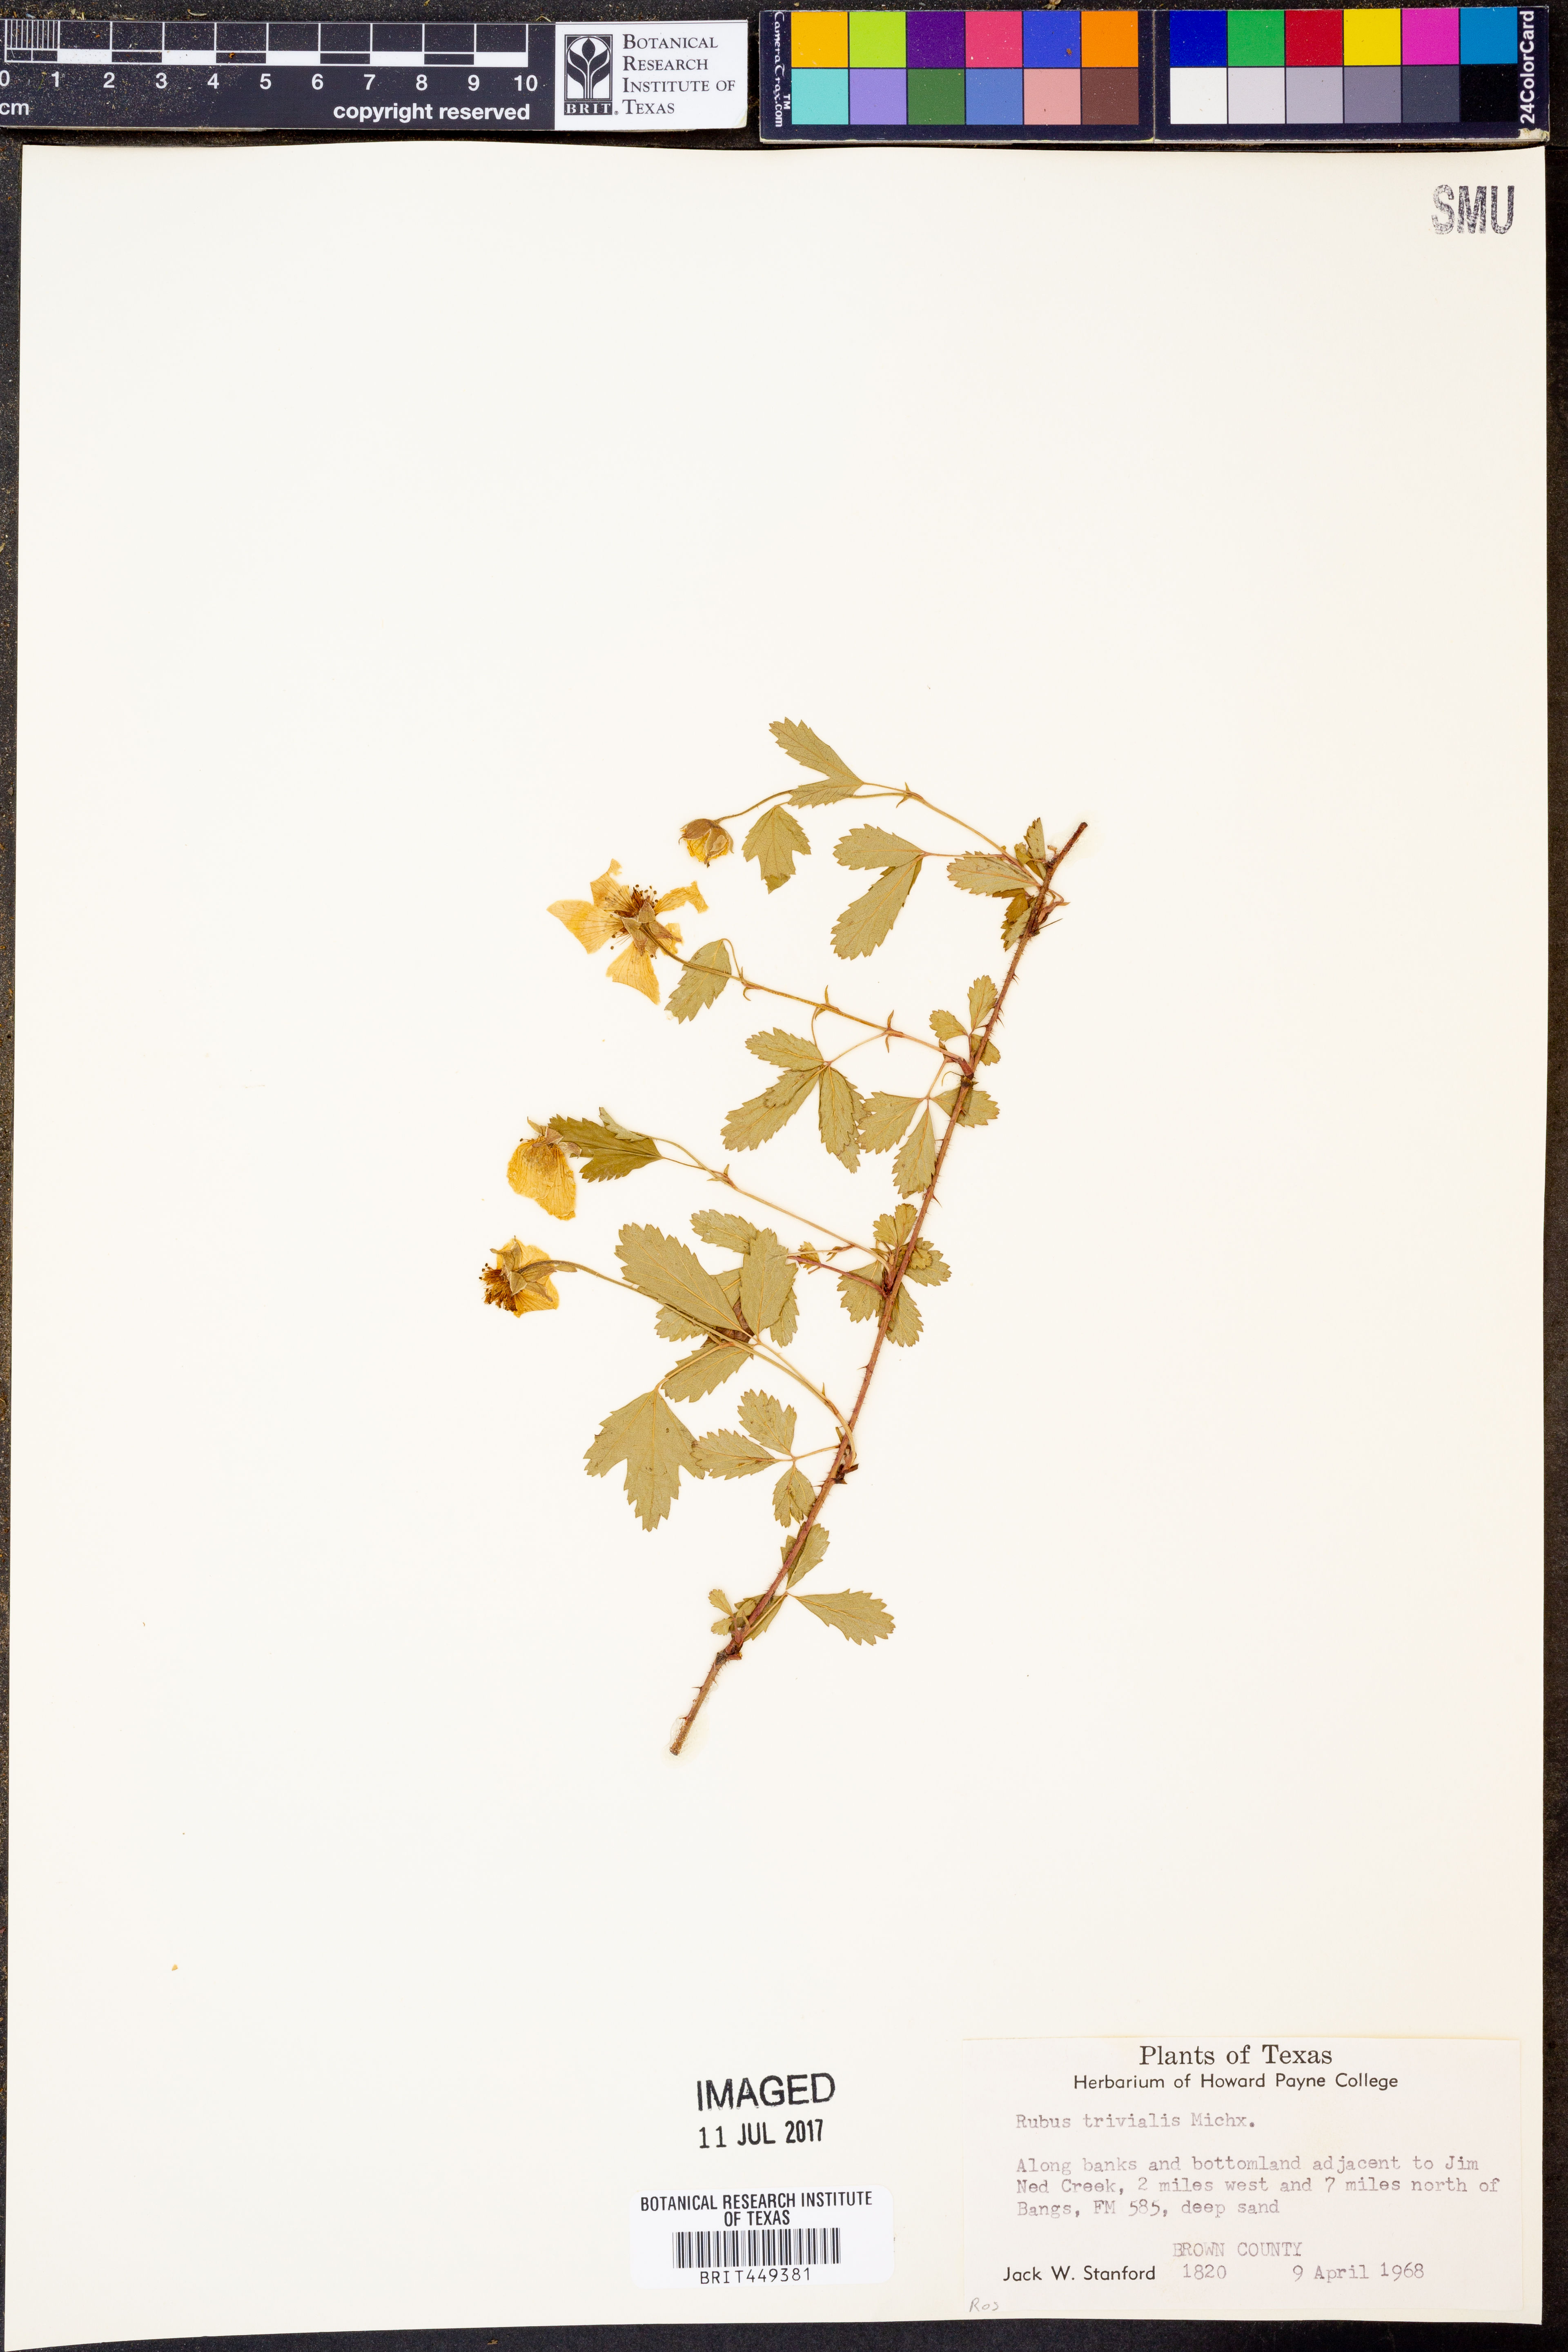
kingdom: Plantae
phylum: Tracheophyta
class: Magnoliopsida
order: Rosales
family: Rosaceae
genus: Rubus
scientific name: Rubus trivialis
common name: Southern dewberry
